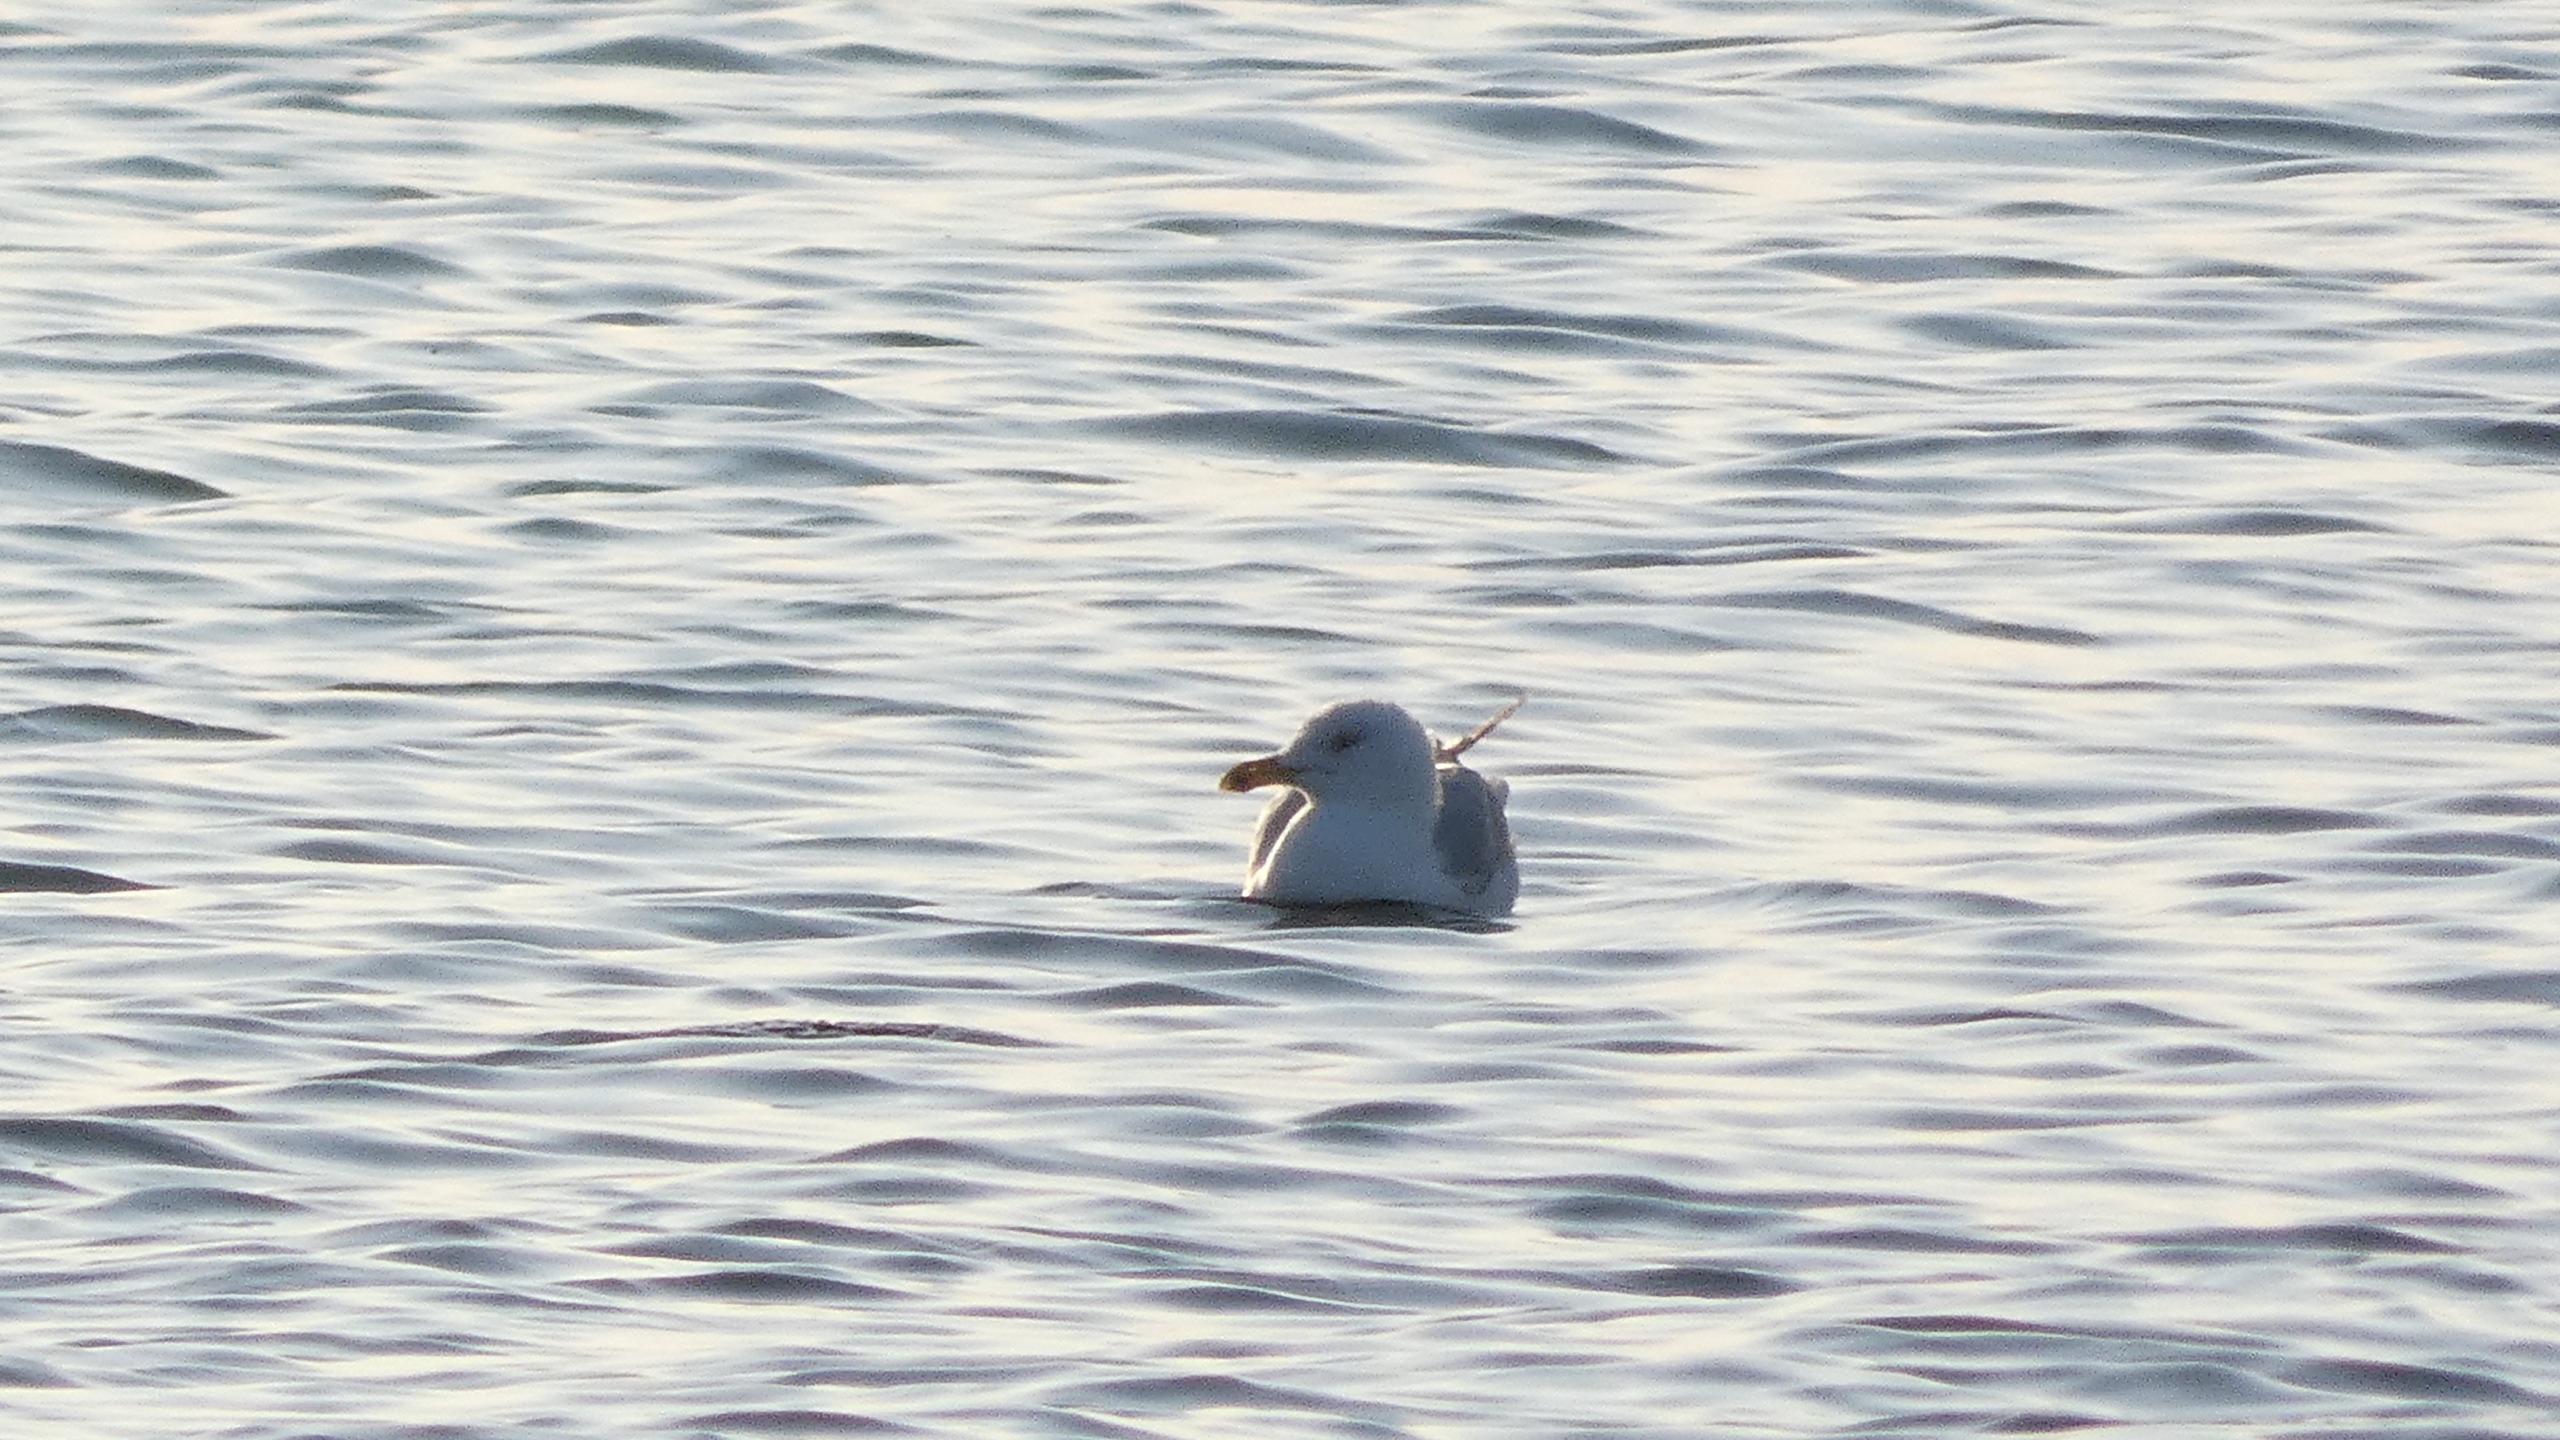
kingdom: Animalia
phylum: Chordata
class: Aves
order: Charadriiformes
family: Laridae
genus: Larus
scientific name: Larus argentatus
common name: Sølvmåge
